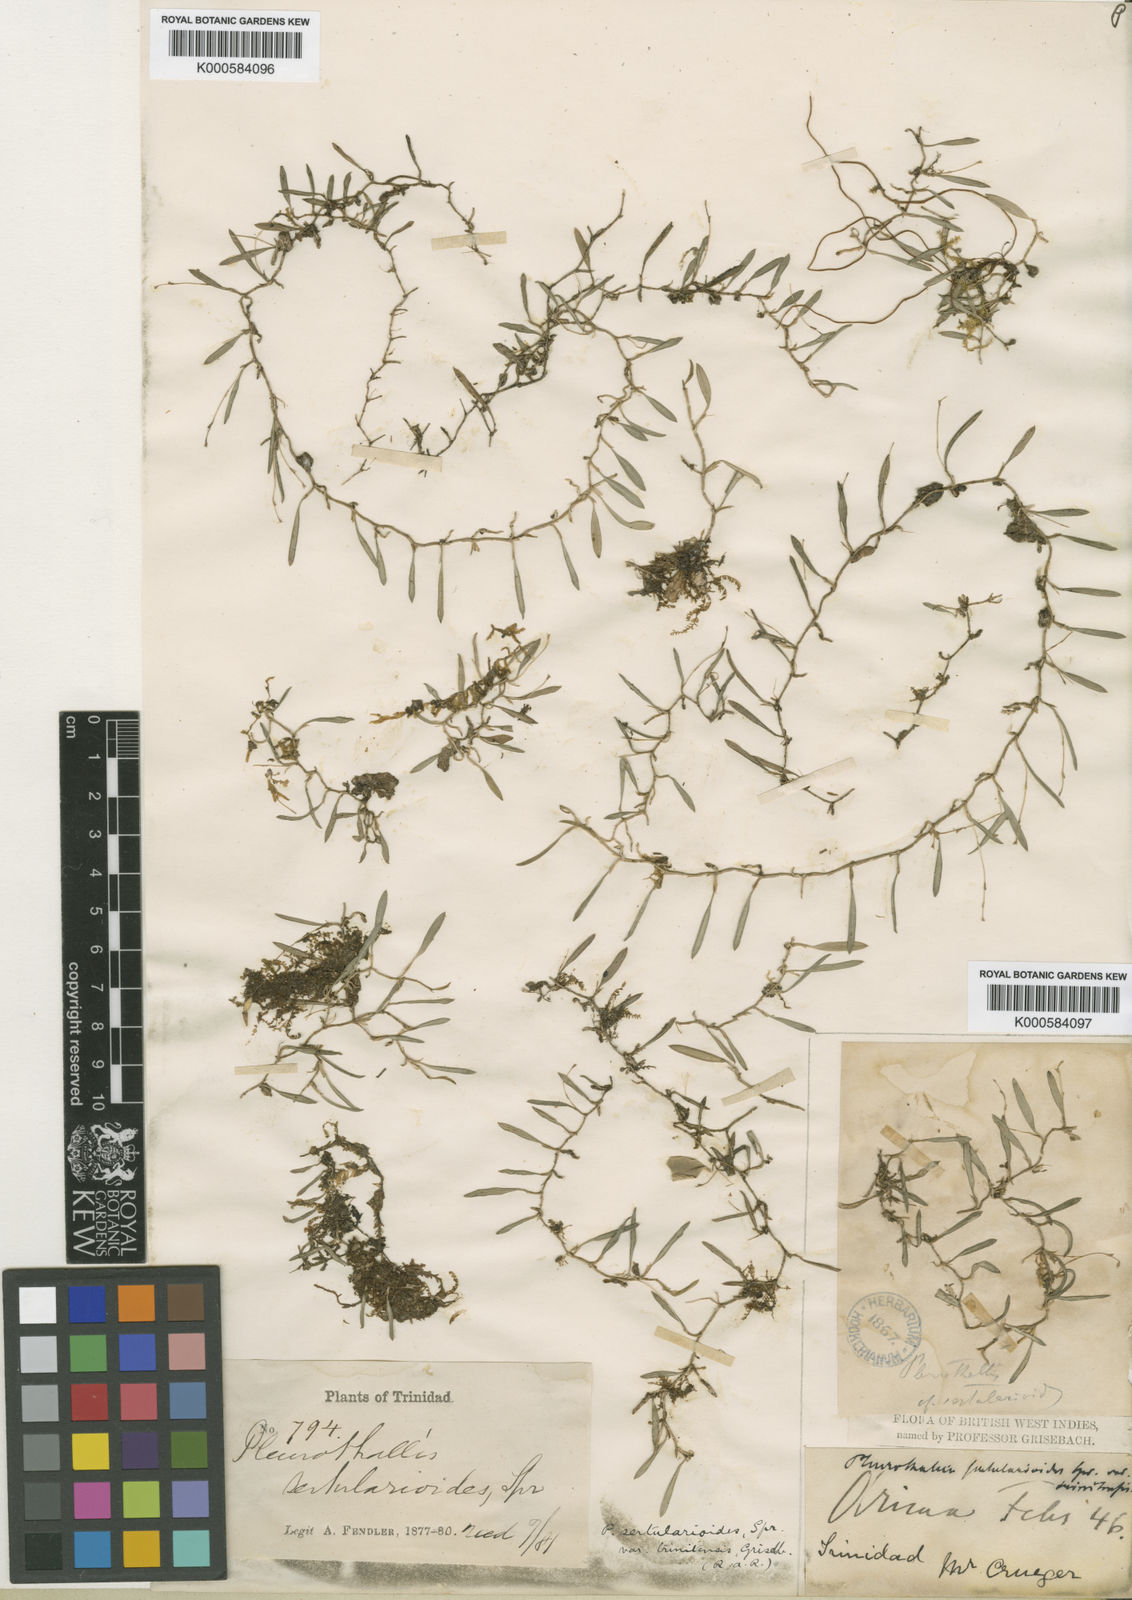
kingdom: Plantae
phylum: Tracheophyta
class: Liliopsida
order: Asparagales
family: Orchidaceae
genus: Madisonia
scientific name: Madisonia spiculifera
